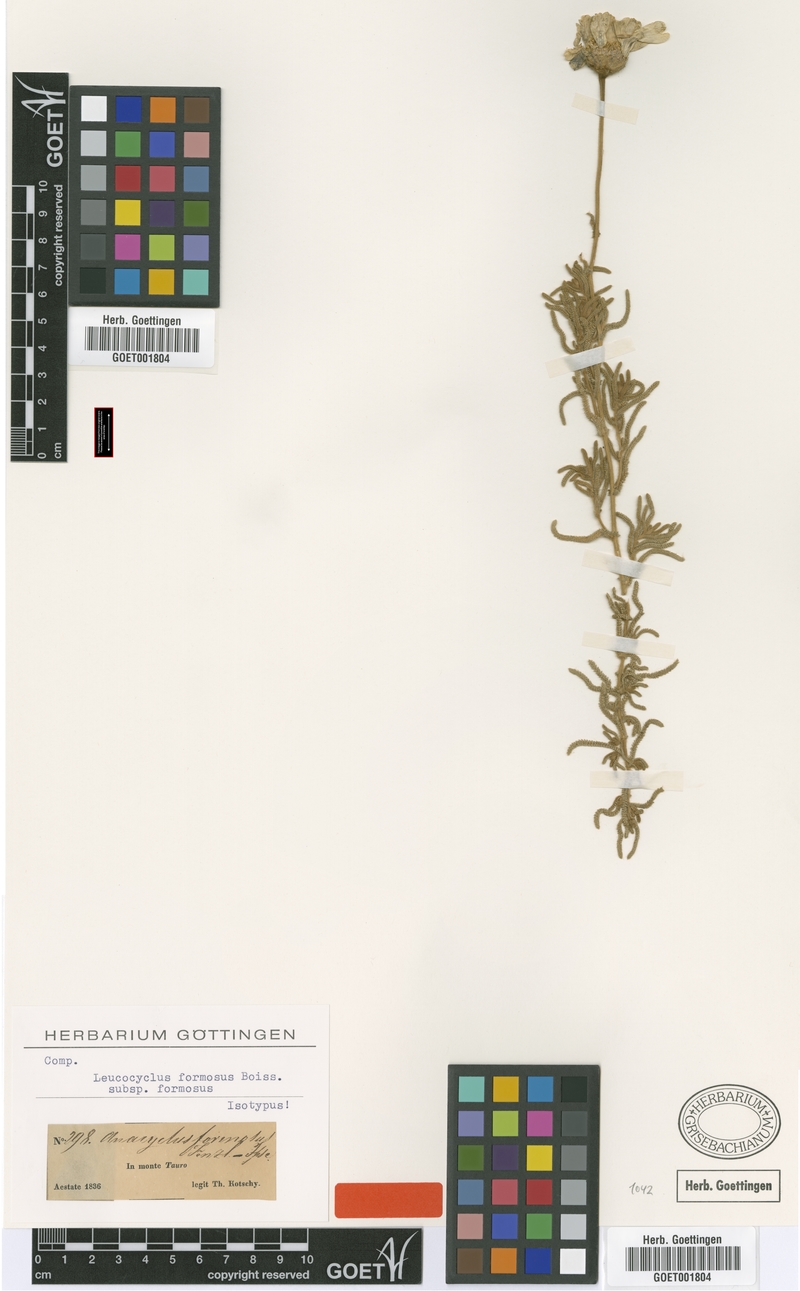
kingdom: Plantae
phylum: Tracheophyta
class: Magnoliopsida
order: Asterales
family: Asteraceae
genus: Achillea
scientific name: Achillea formosa
